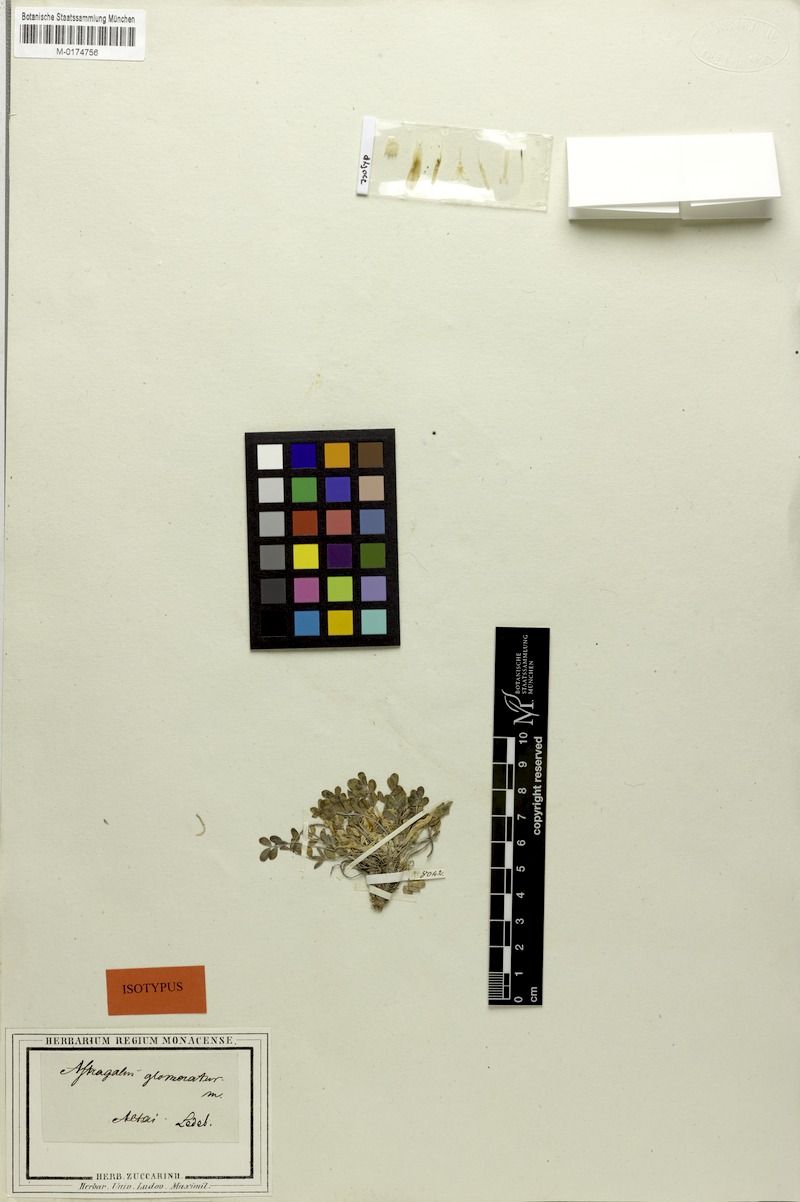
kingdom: Plantae
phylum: Tracheophyta
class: Magnoliopsida
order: Fabales
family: Fabaceae
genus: Astragalus
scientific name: Astragalus glomeratus
